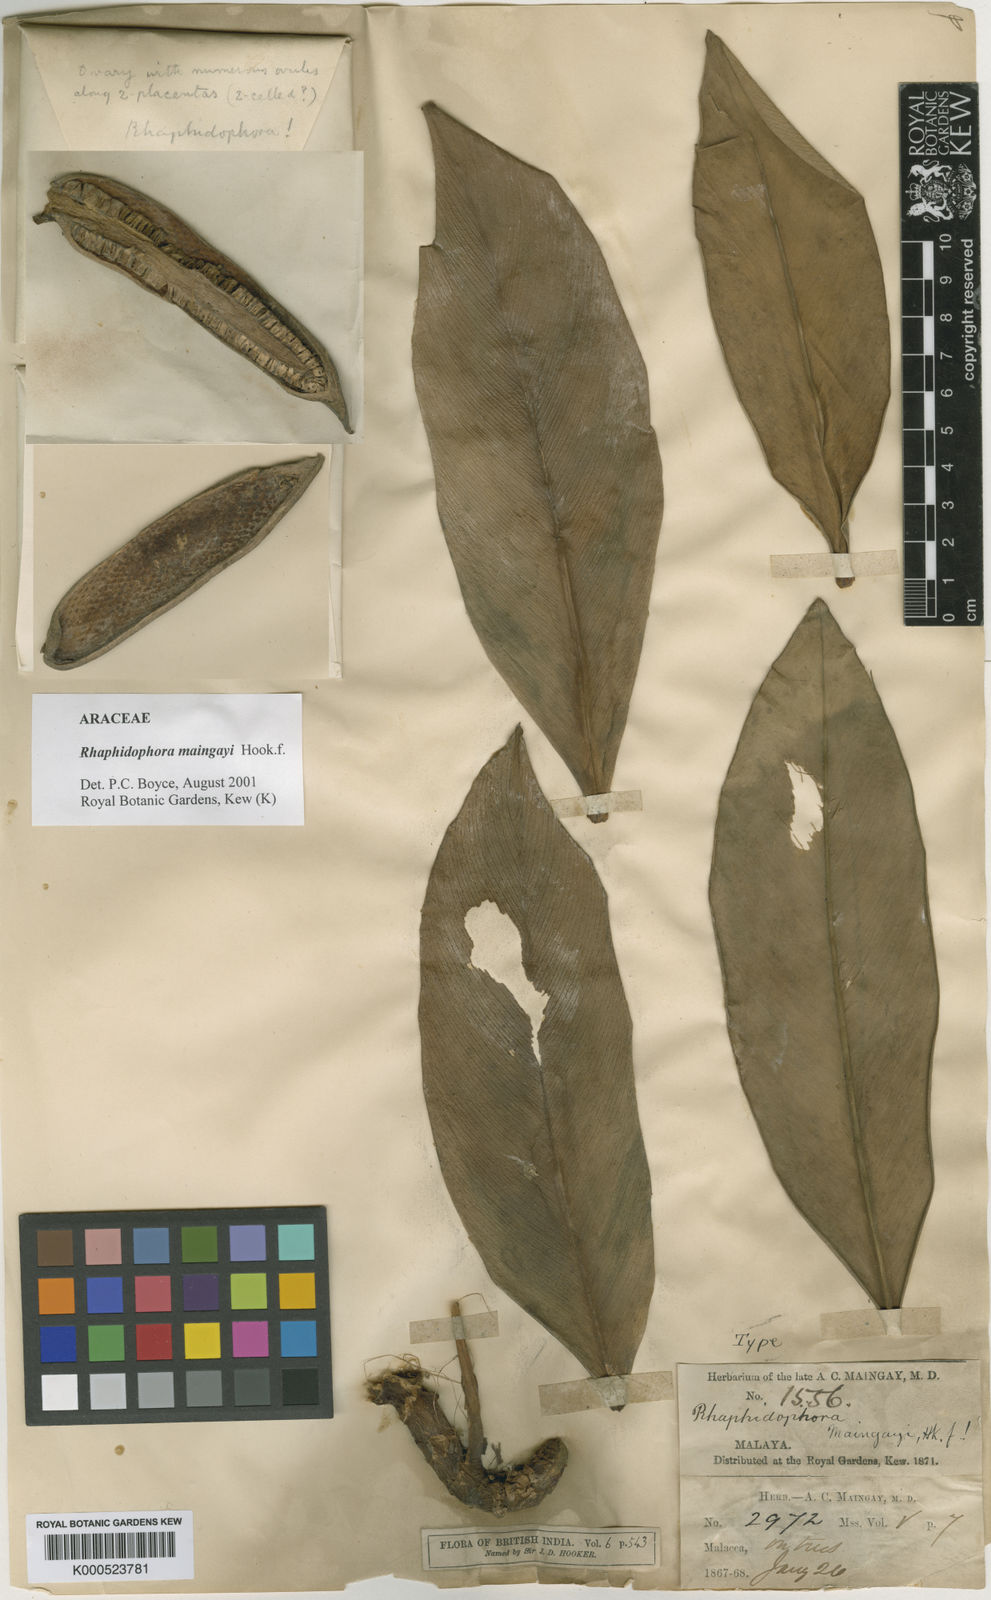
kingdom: Plantae
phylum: Tracheophyta
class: Liliopsida
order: Alismatales
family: Araceae
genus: Rhaphidophora
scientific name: Rhaphidophora maingayi
